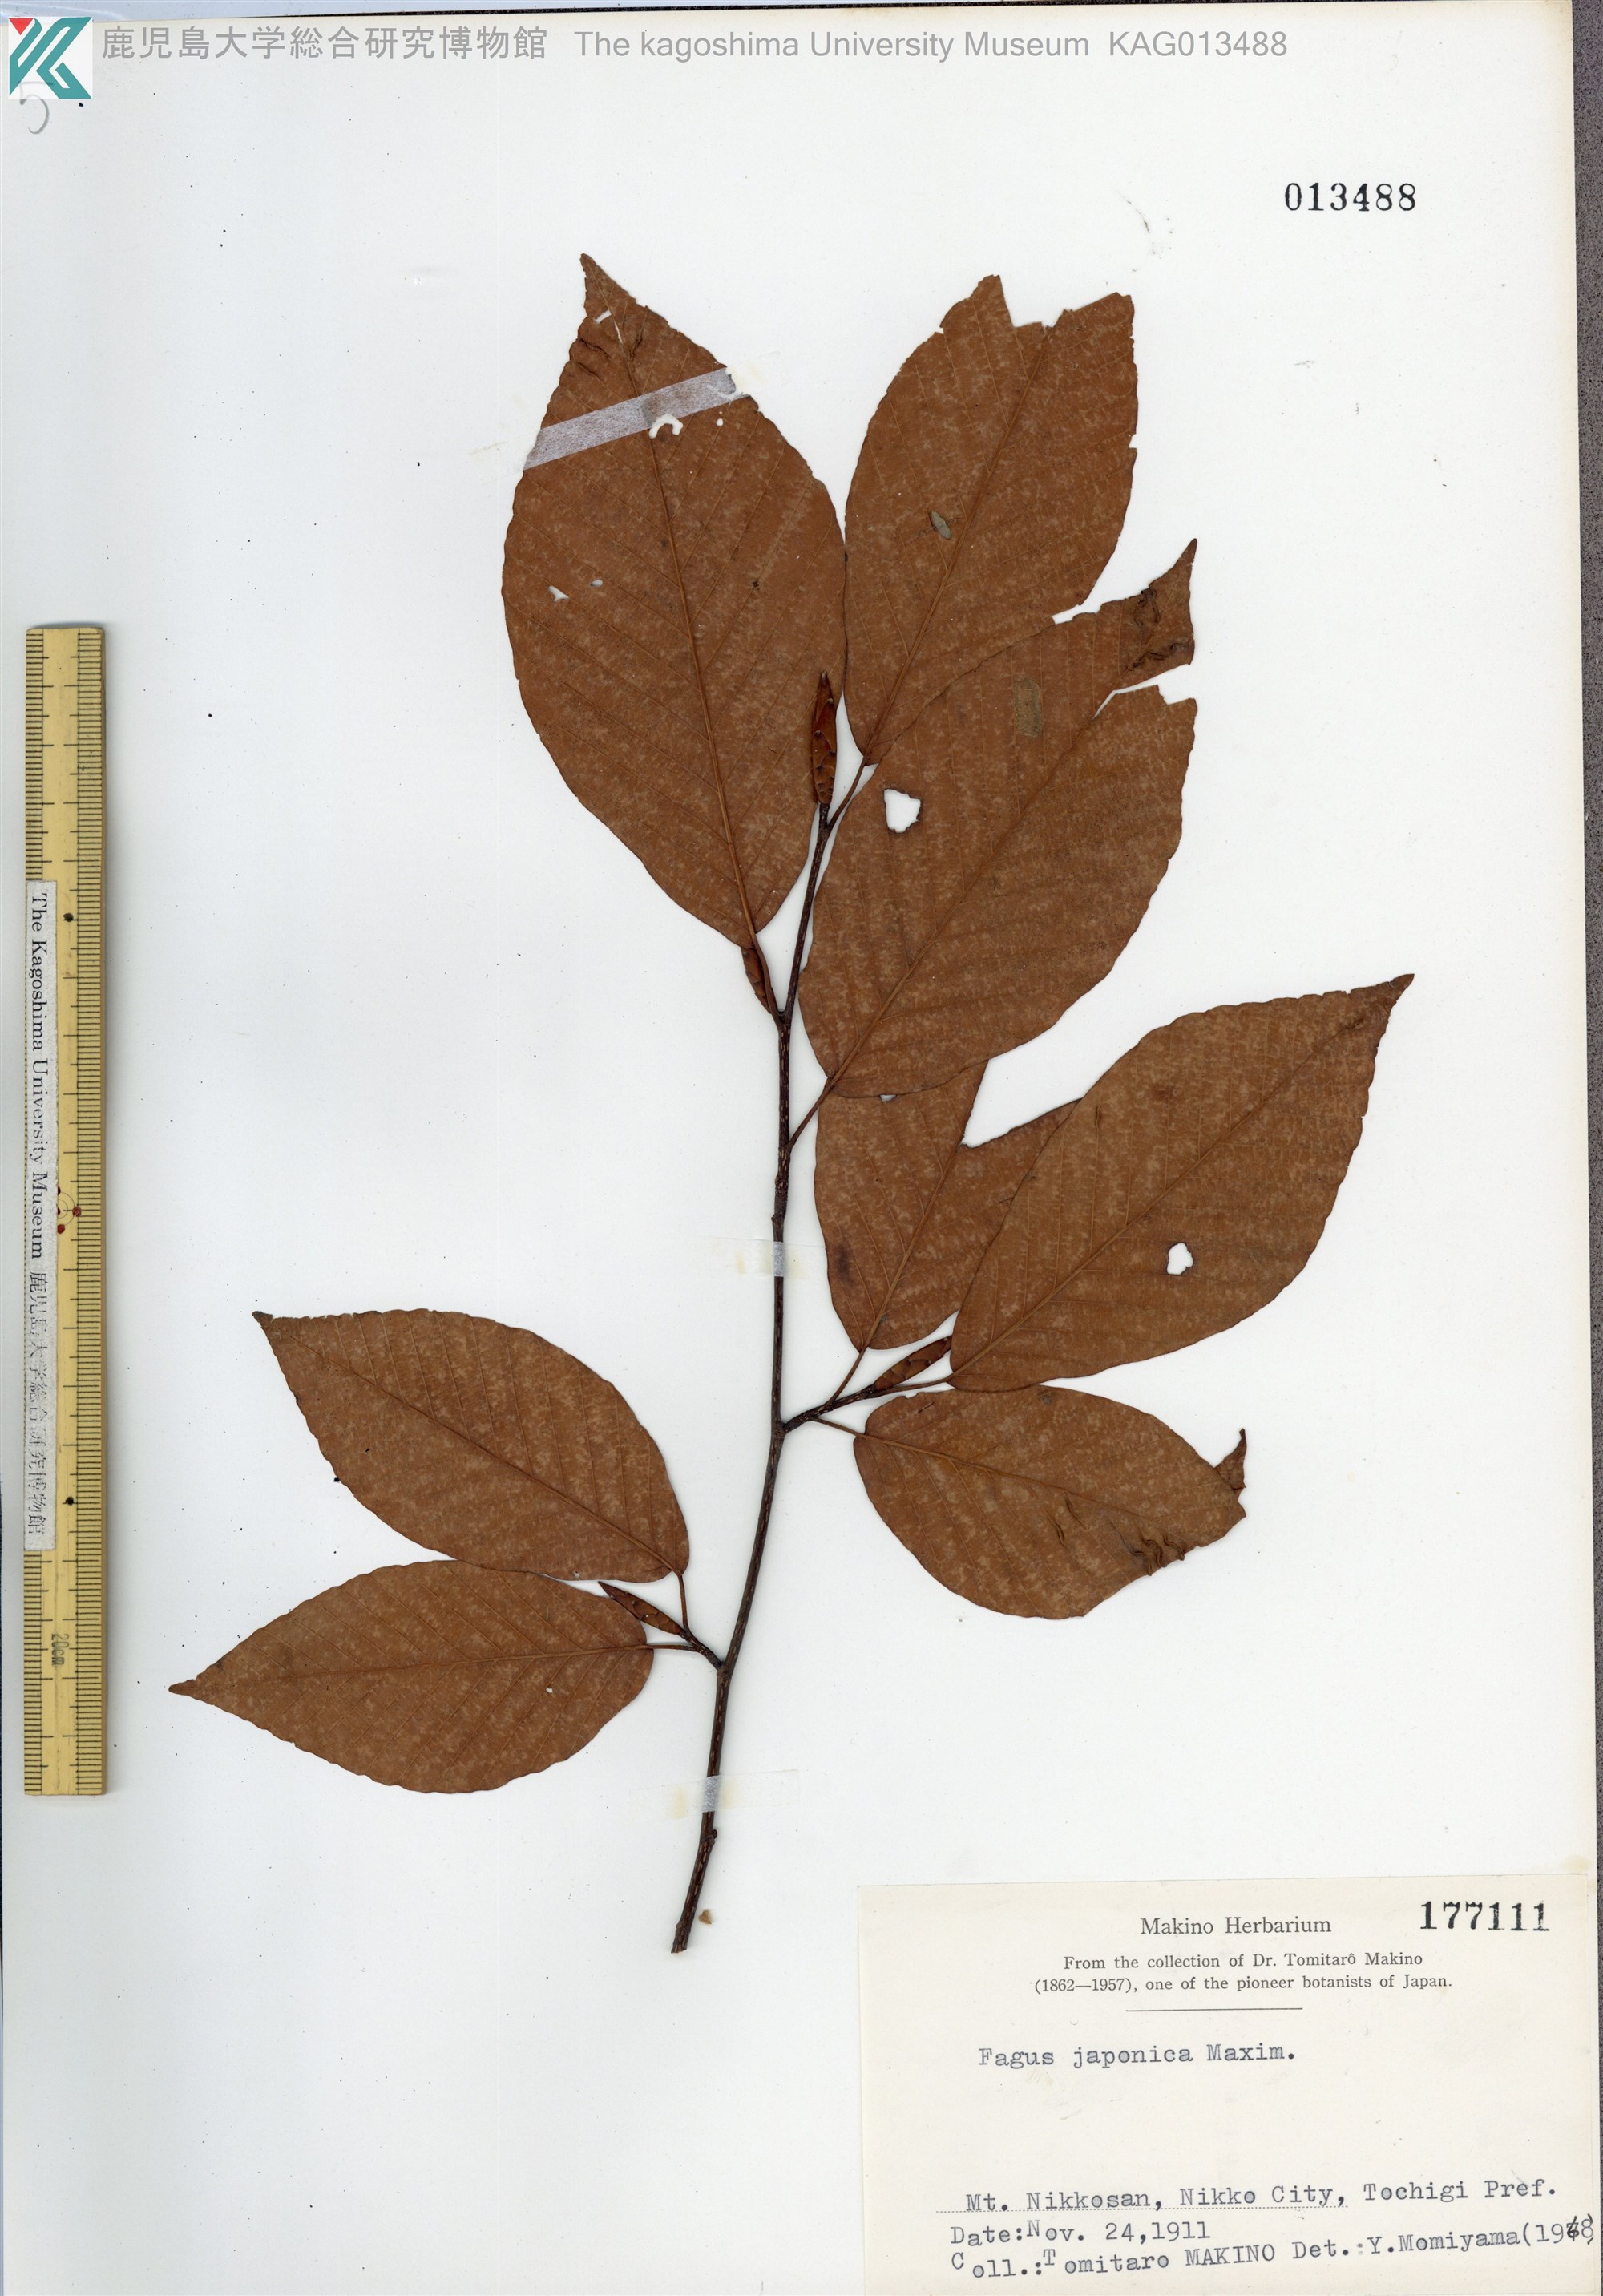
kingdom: Plantae
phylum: Tracheophyta
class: Magnoliopsida
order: Fagales
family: Fagaceae
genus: Fagus
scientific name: Fagus japonica
